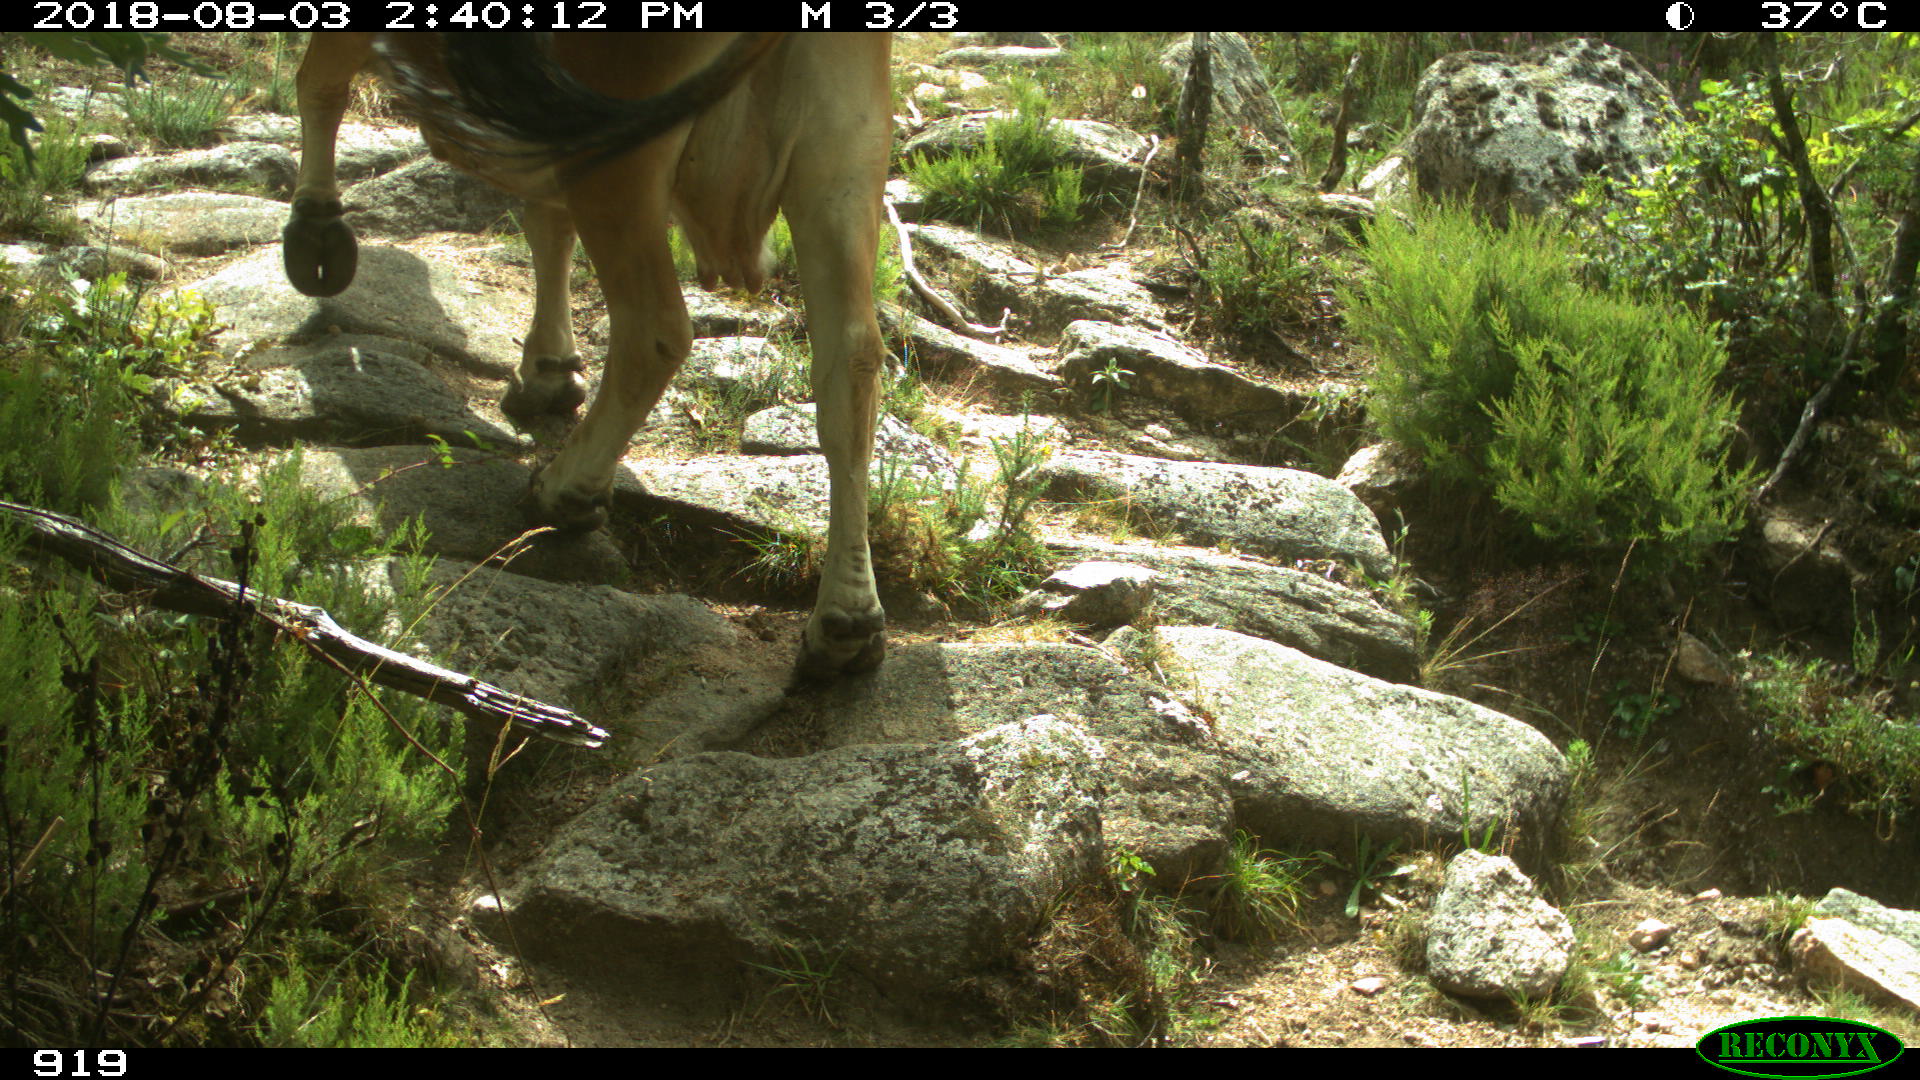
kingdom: Animalia
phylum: Chordata
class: Mammalia
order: Artiodactyla
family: Bovidae
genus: Bos
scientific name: Bos taurus
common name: Domesticated cattle
